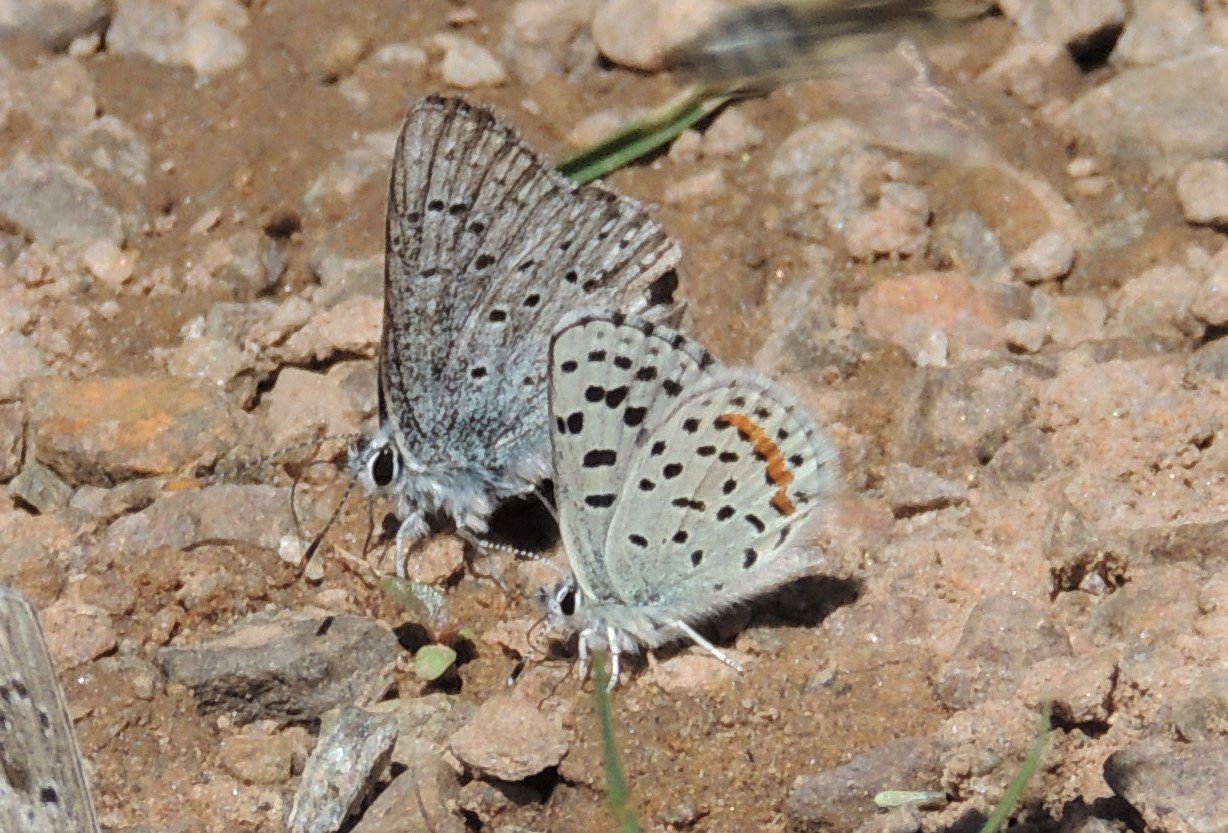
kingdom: Animalia
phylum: Arthropoda
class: Insecta
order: Lepidoptera
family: Lycaenidae
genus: Plebejus
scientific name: Plebejus saepiolus
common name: Greenish Blue
